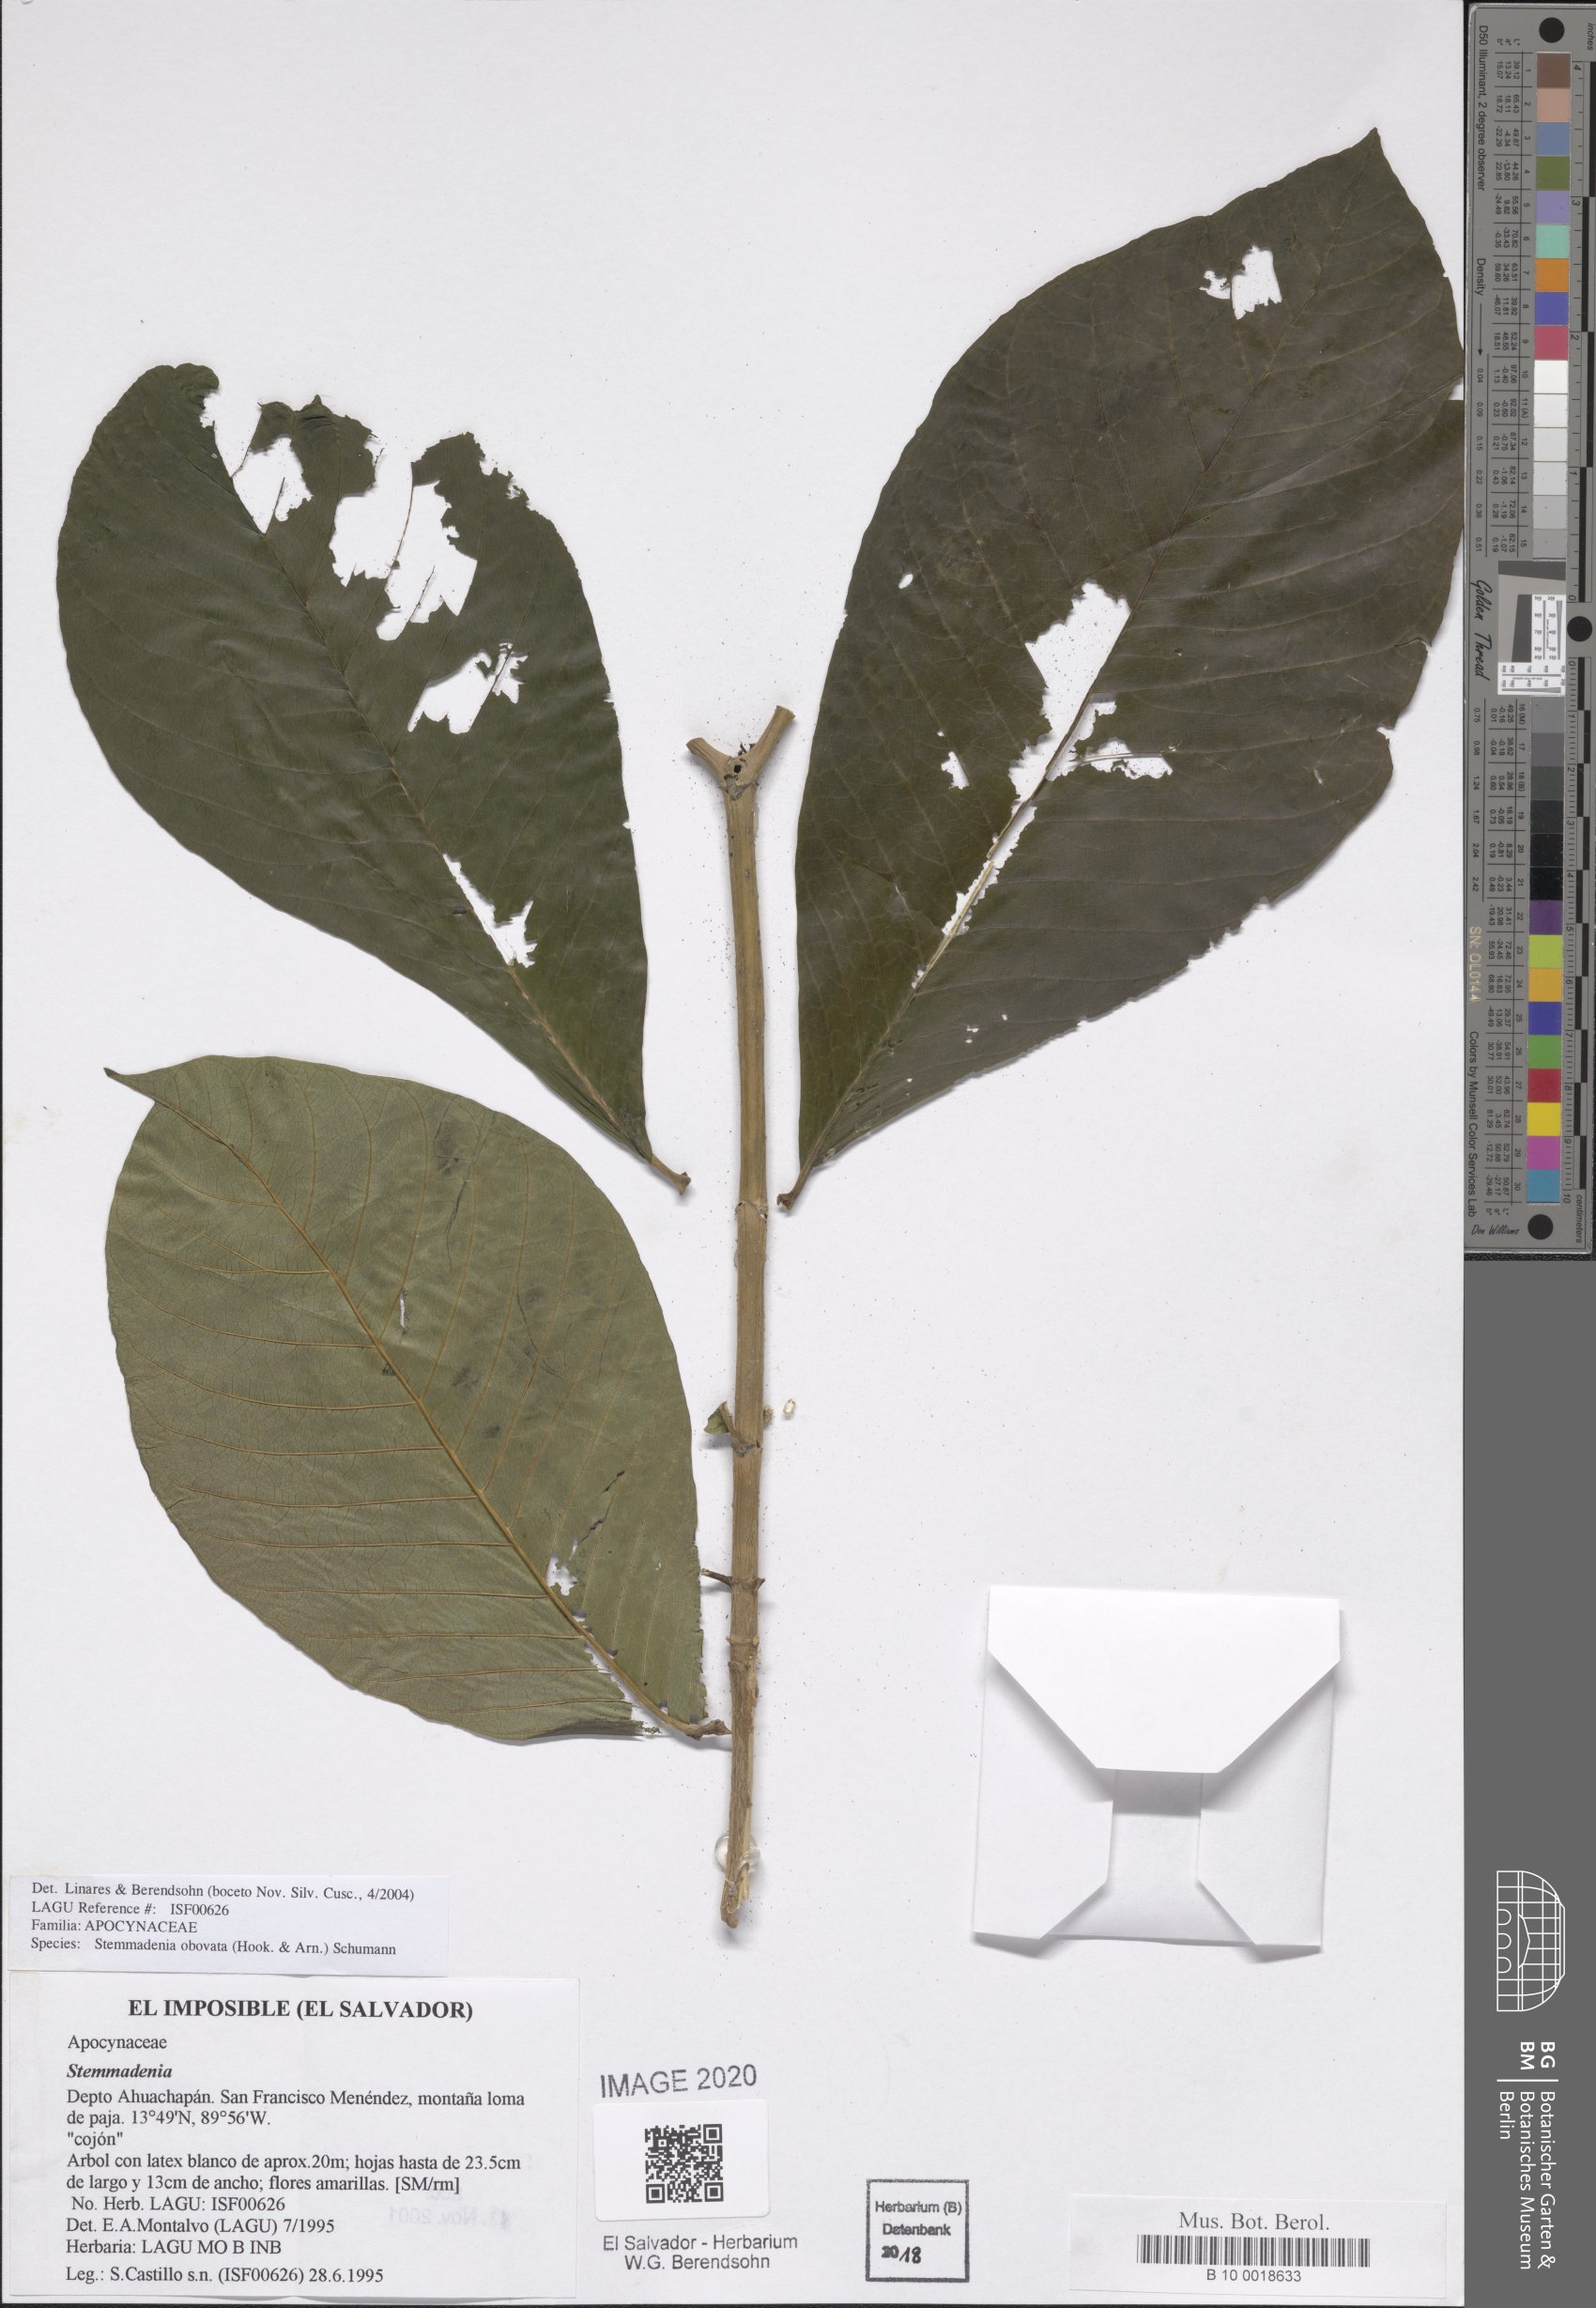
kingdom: Plantae
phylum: Tracheophyta
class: Magnoliopsida
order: Gentianales
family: Apocynaceae
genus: Tabernaemontana
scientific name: Tabernaemontana glabra
